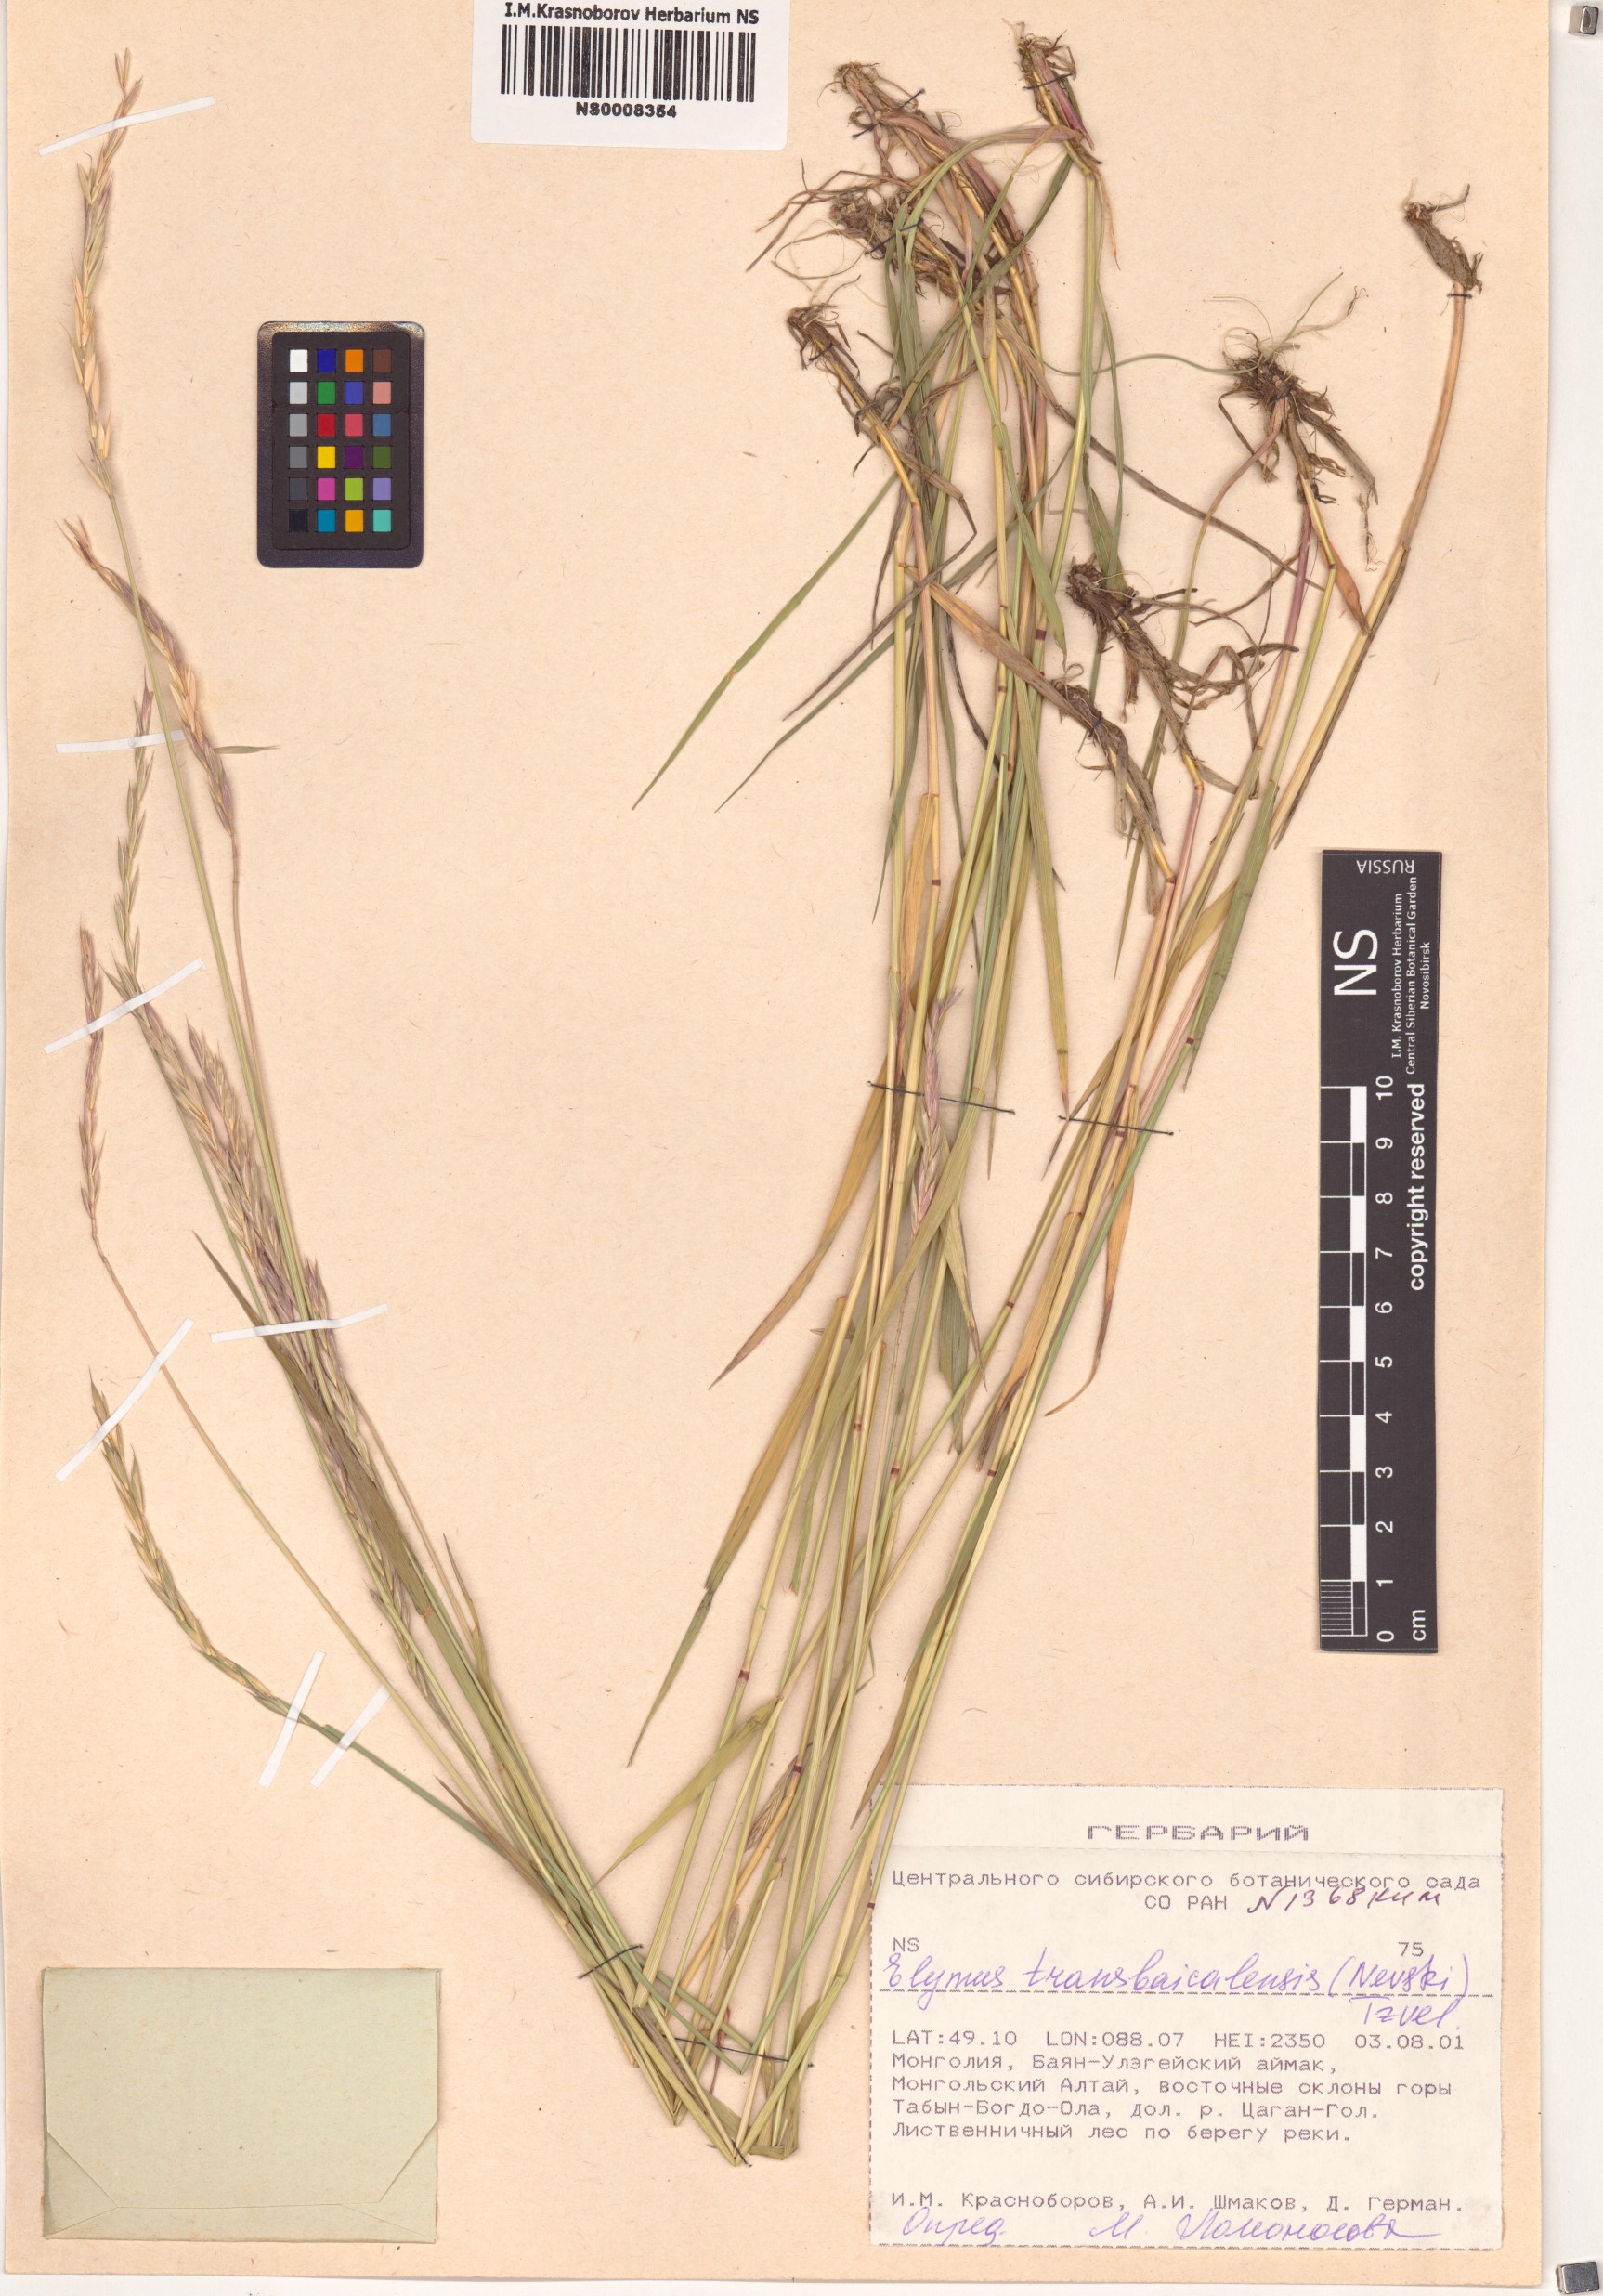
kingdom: Plantae
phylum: Tracheophyta
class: Liliopsida
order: Poales
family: Poaceae
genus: Elymus
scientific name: Elymus mutabilis
